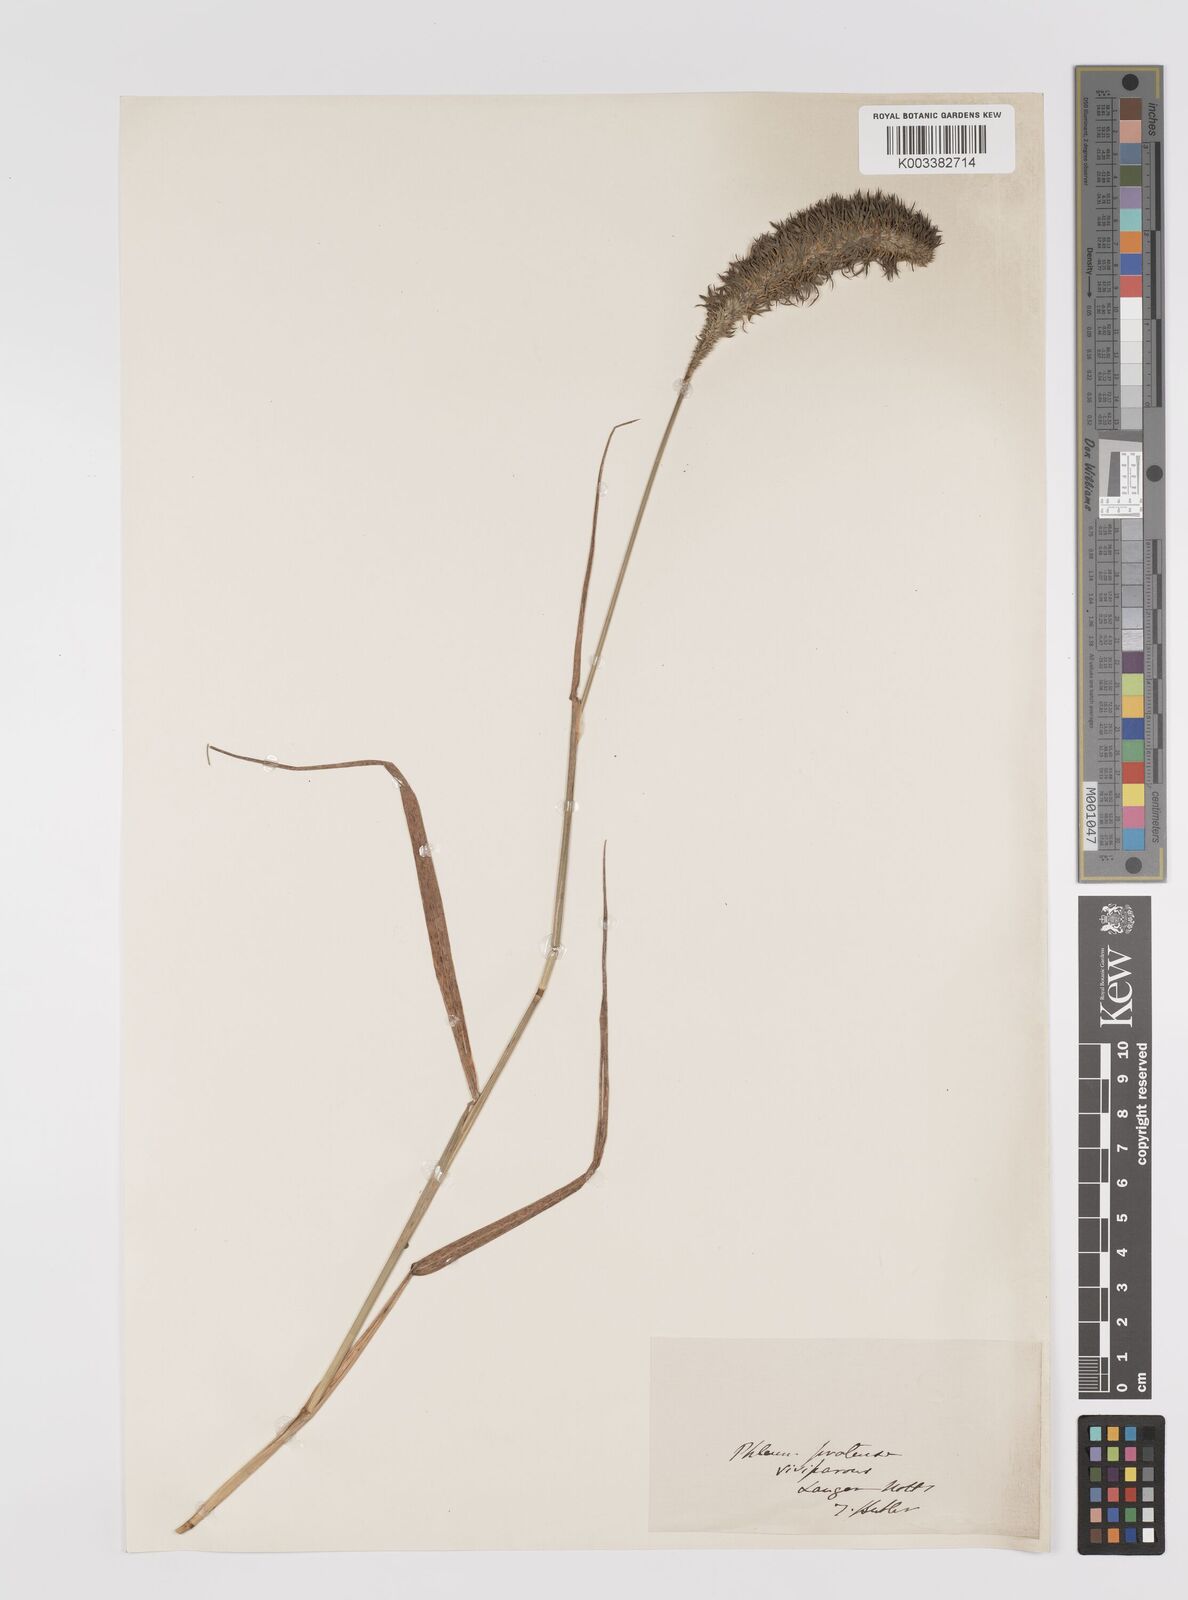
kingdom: Plantae
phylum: Tracheophyta
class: Liliopsida
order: Poales
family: Poaceae
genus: Phleum
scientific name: Phleum pratense
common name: Timothy grass
